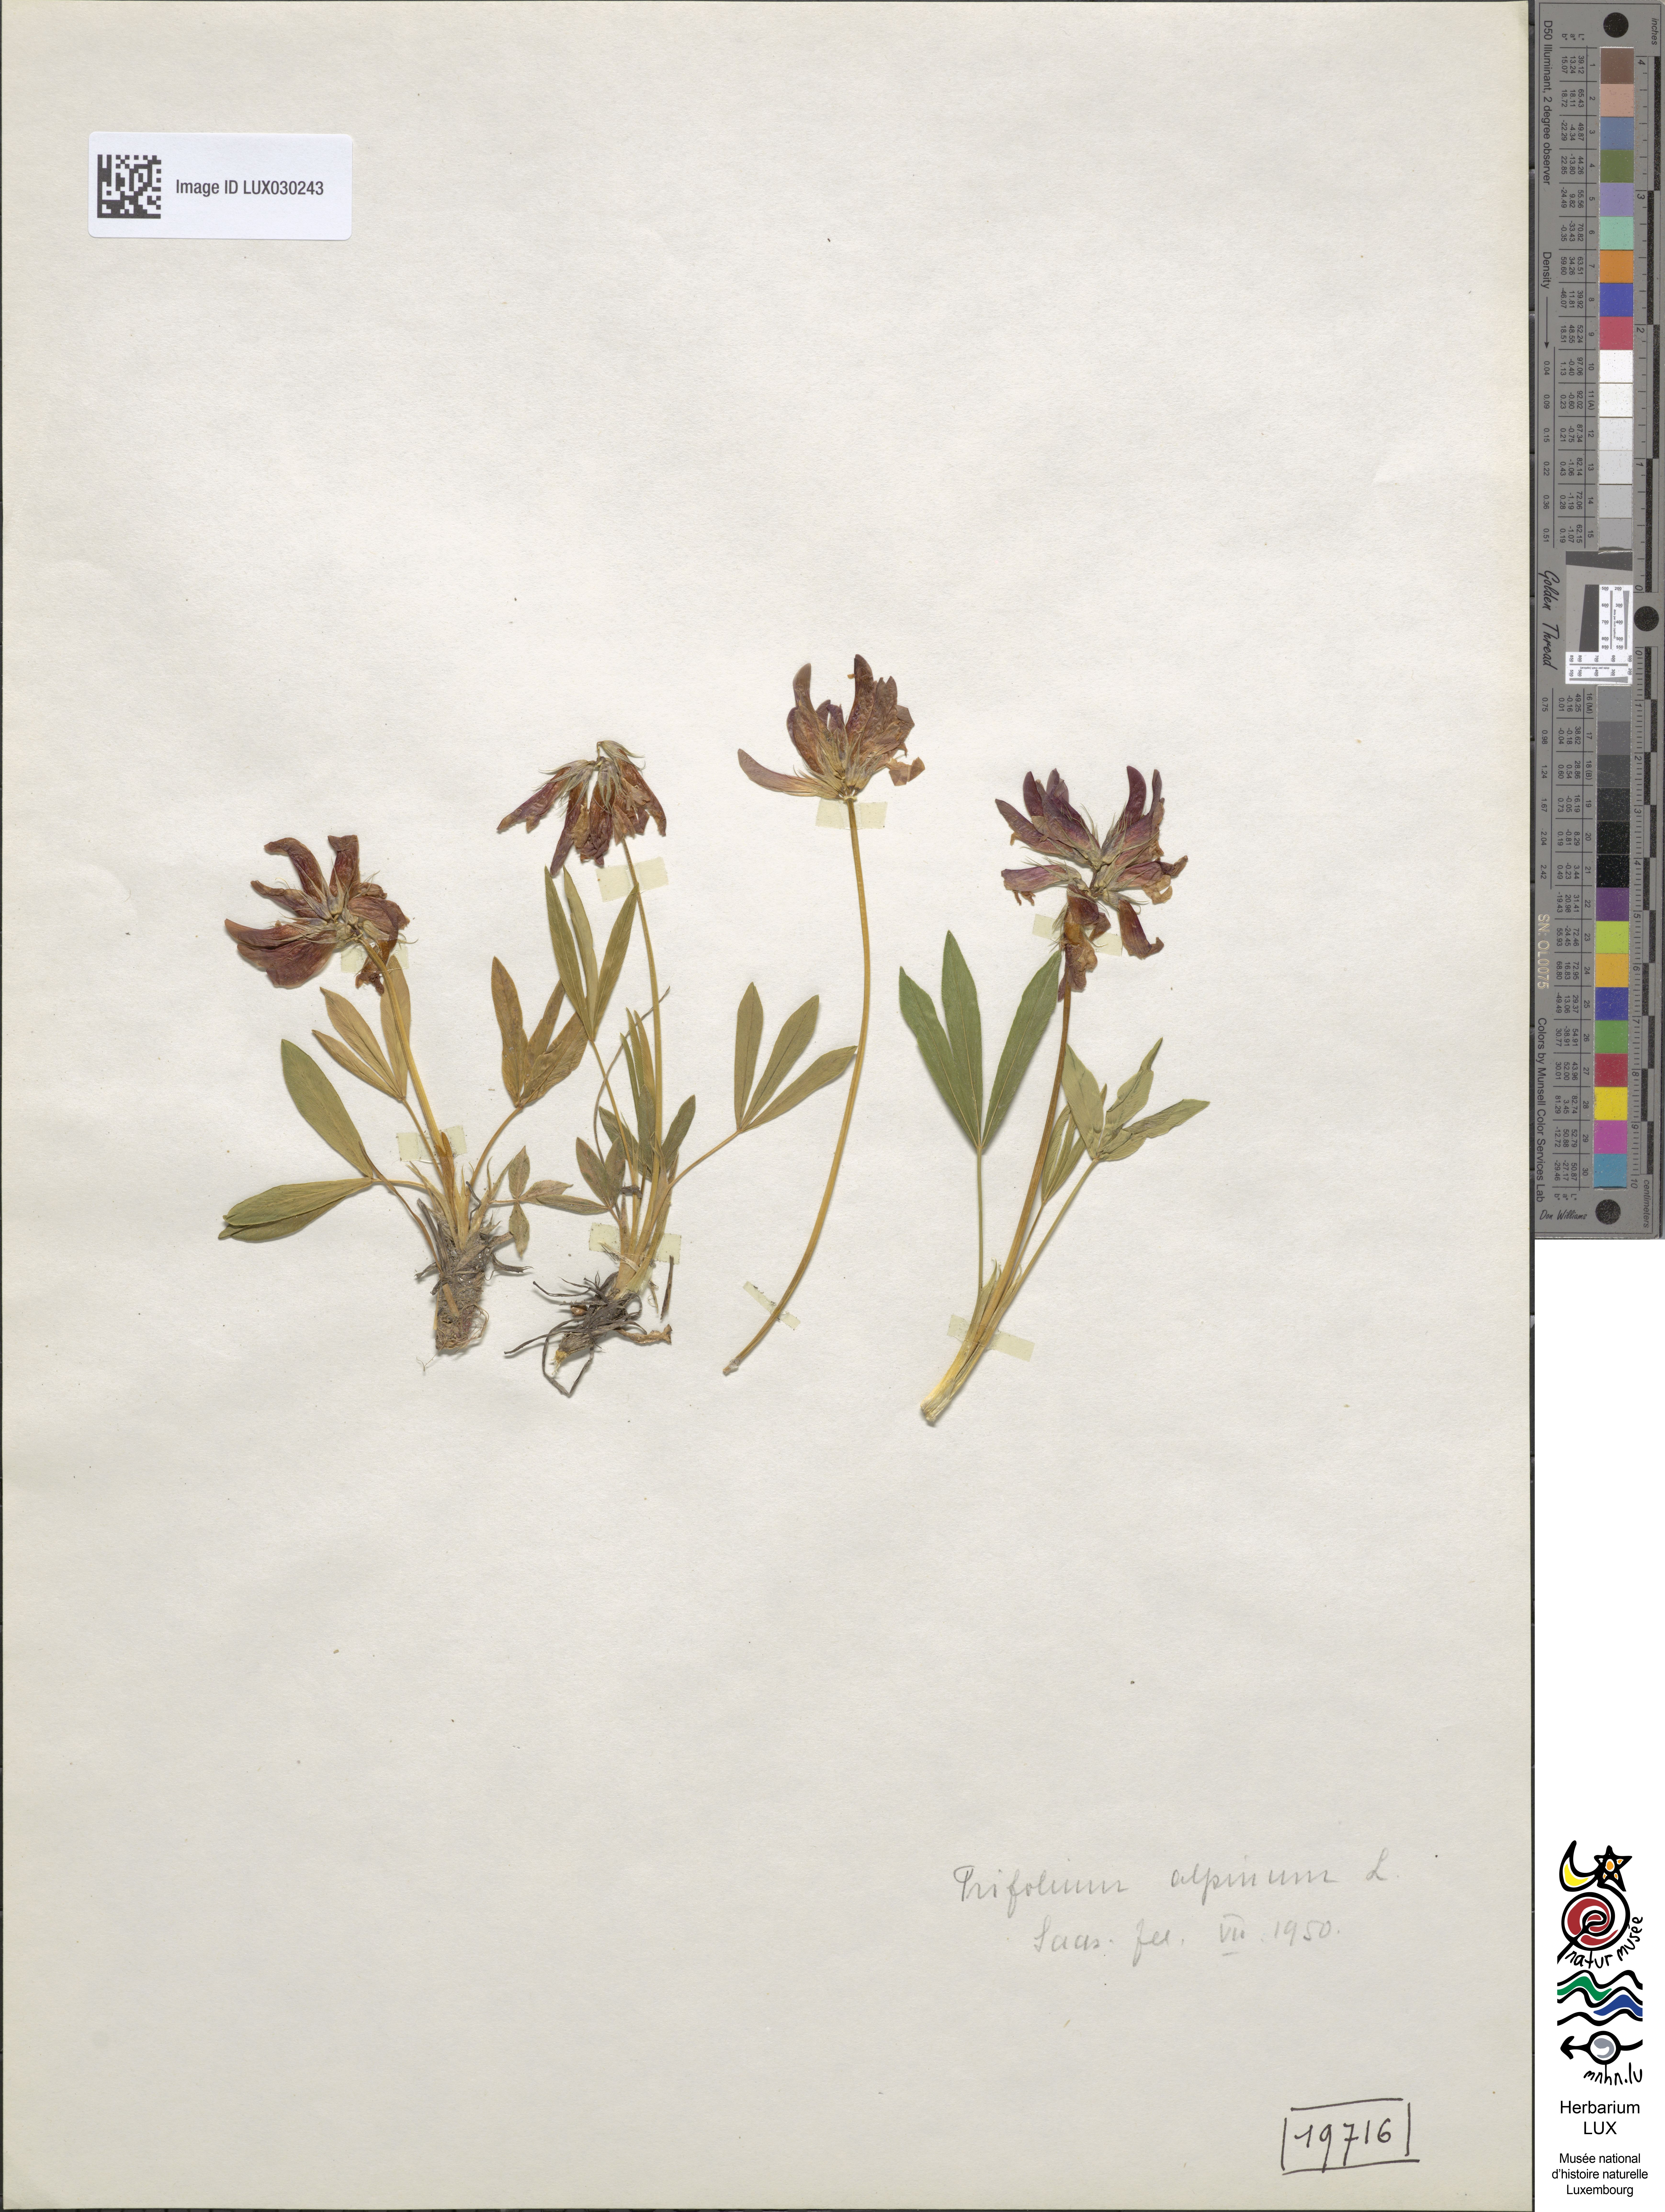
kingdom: Plantae
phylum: Tracheophyta
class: Magnoliopsida
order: Fabales
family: Fabaceae
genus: Trifolium
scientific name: Trifolium alpinum
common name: Alpine clover
